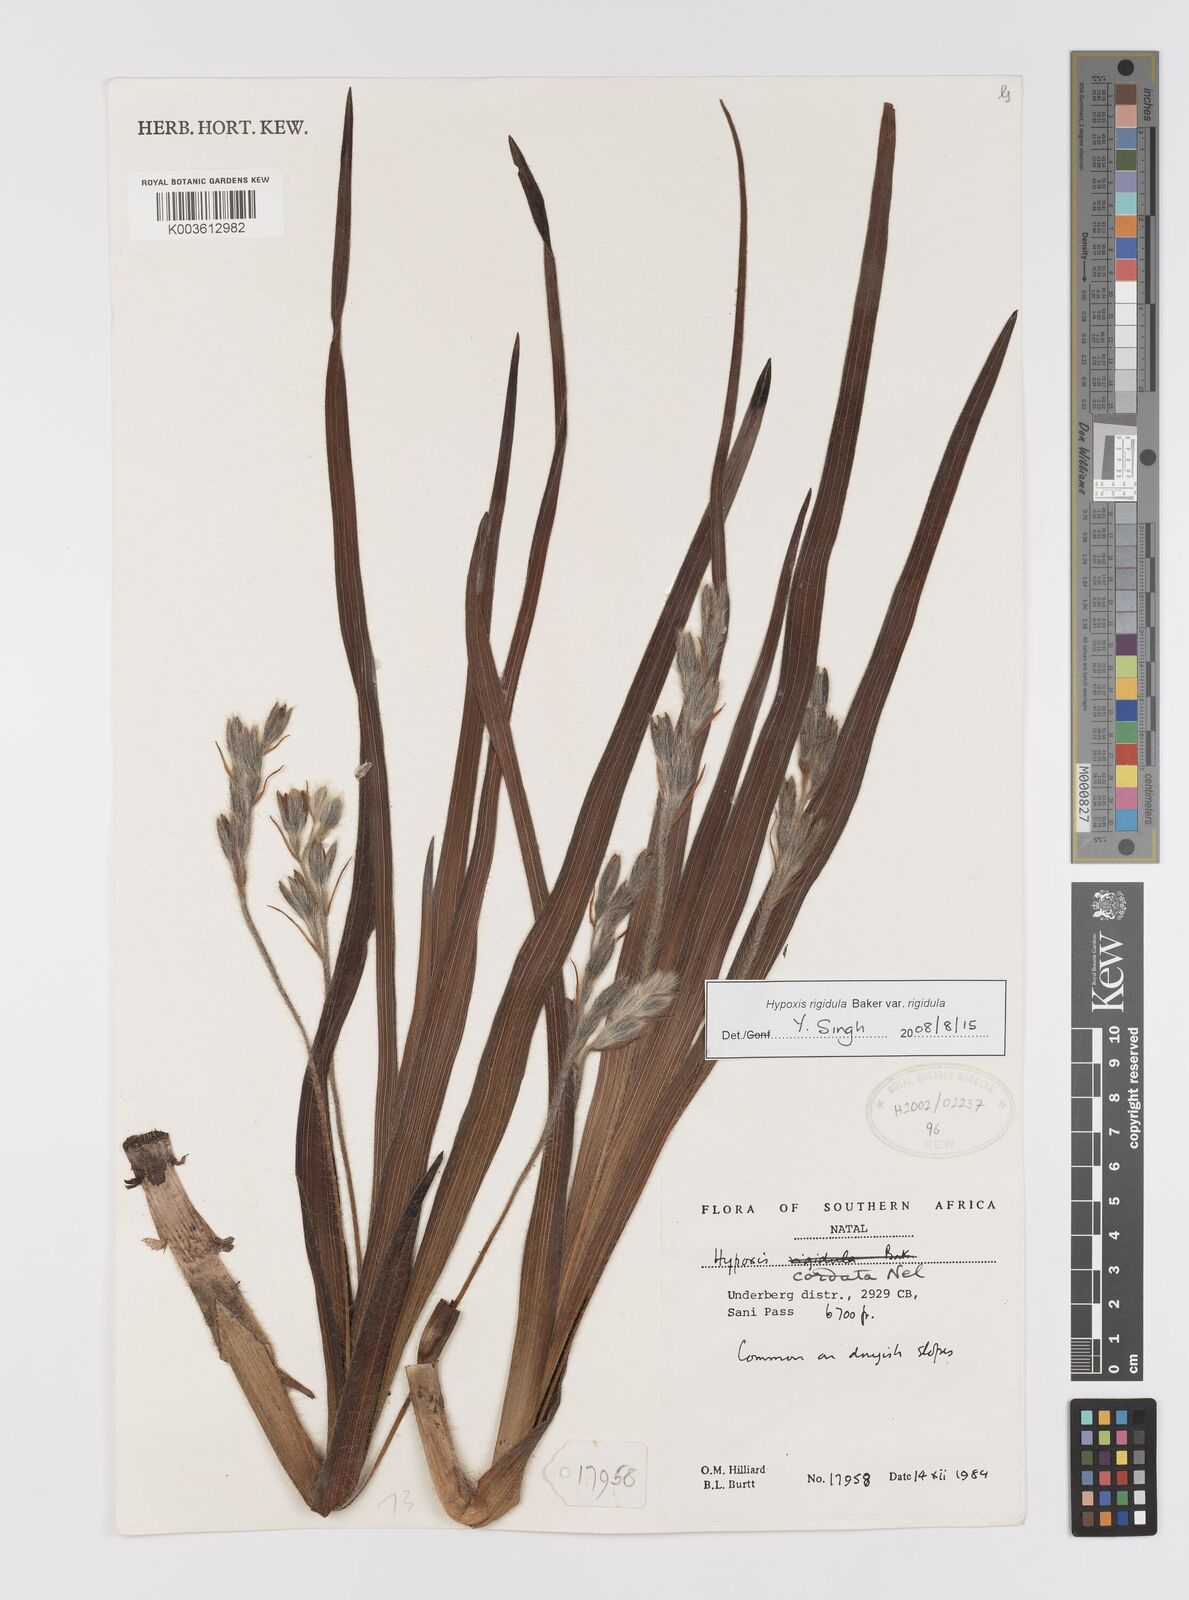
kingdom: Plantae
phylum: Tracheophyta
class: Liliopsida
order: Asparagales
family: Hypoxidaceae
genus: Hypoxis
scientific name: Hypoxis rigidula
